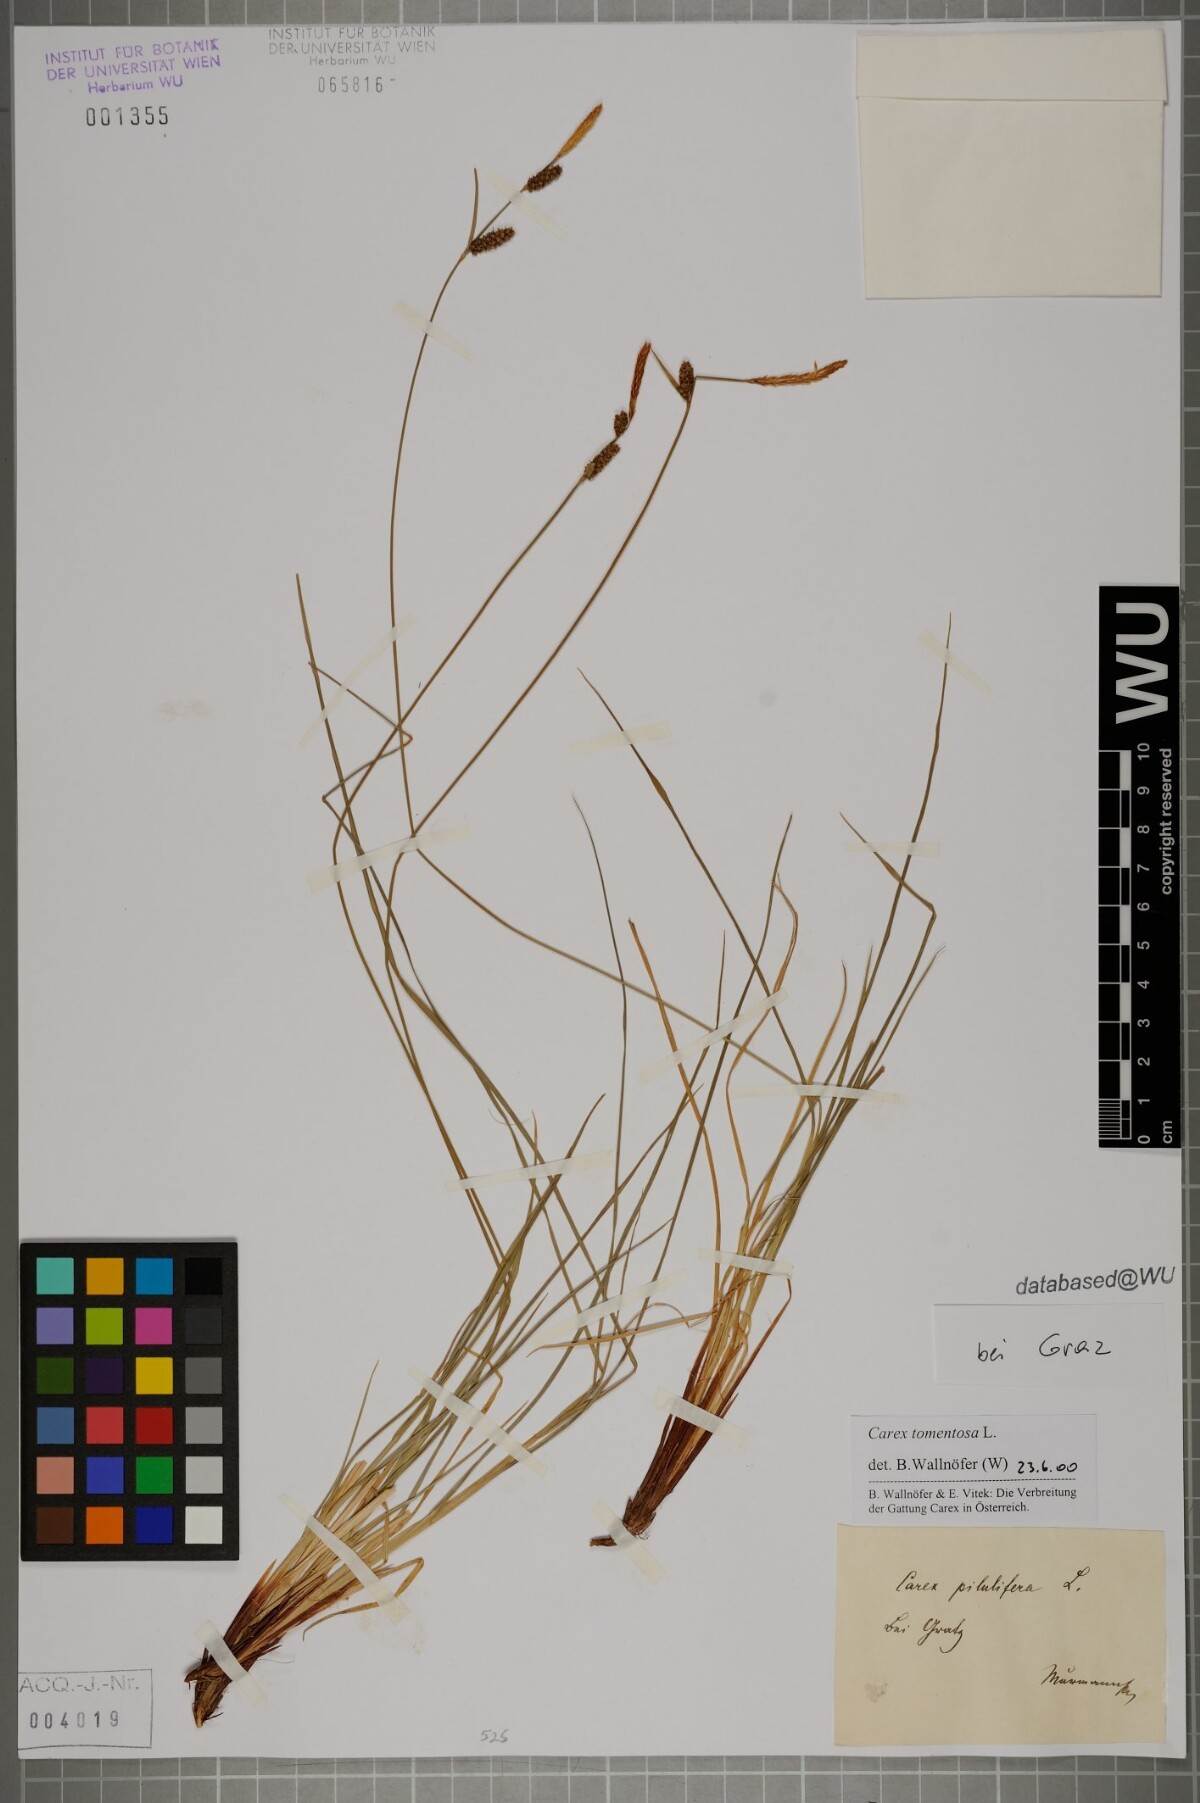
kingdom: Plantae
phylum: Tracheophyta
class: Liliopsida
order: Poales
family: Cyperaceae
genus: Carex
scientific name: Carex tomentosa
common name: Downy-fruited sedge
